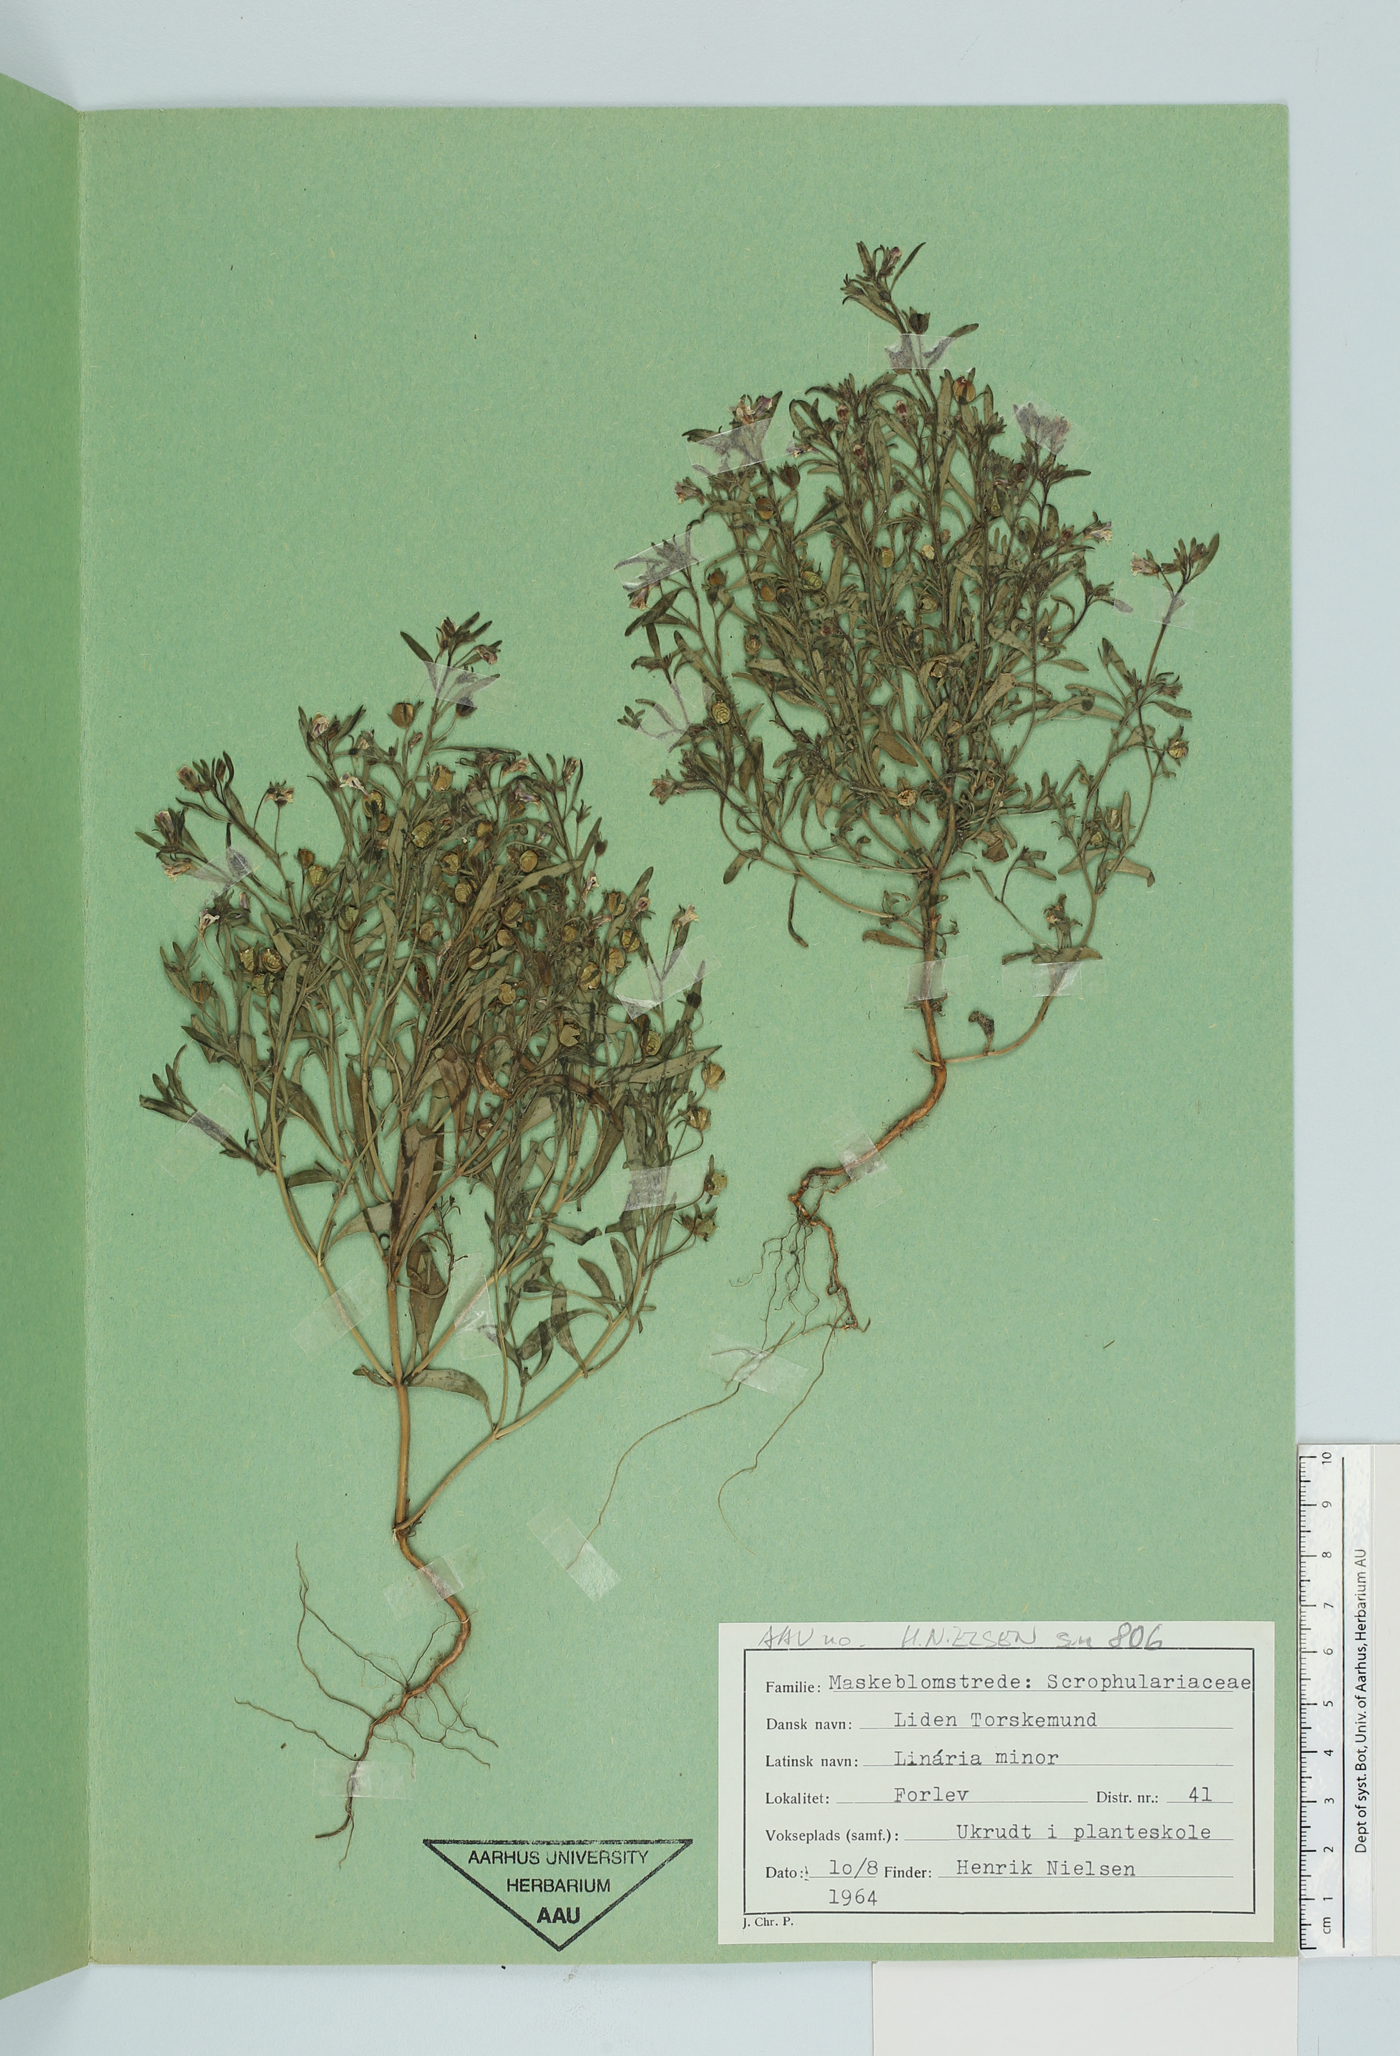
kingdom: Plantae
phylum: Tracheophyta
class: Magnoliopsida
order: Lamiales
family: Plantaginaceae
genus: Chaenorhinum
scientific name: Chaenorhinum minus
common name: Dwarf snapdragon
